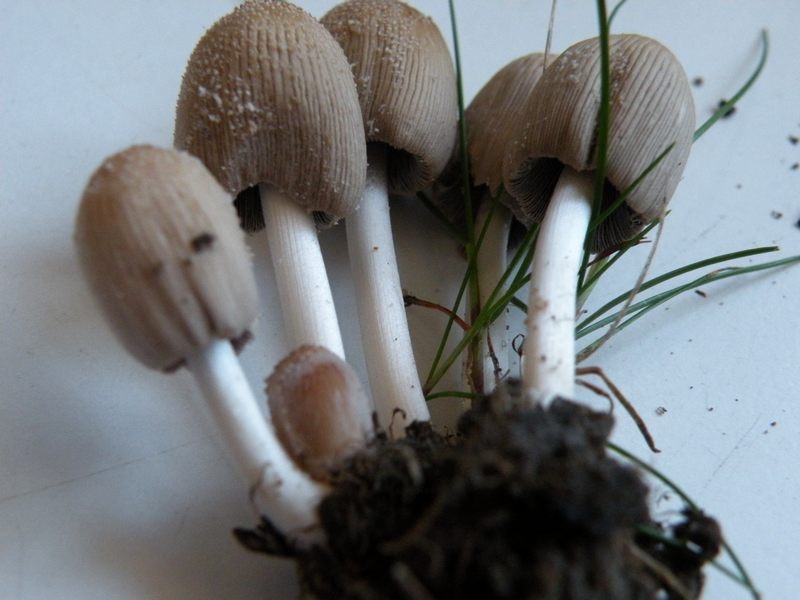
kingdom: Fungi
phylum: Basidiomycota
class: Agaricomycetes
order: Agaricales
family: Psathyrellaceae
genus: Coprinellus
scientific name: Coprinellus micaceus
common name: glimmer-blækhat
